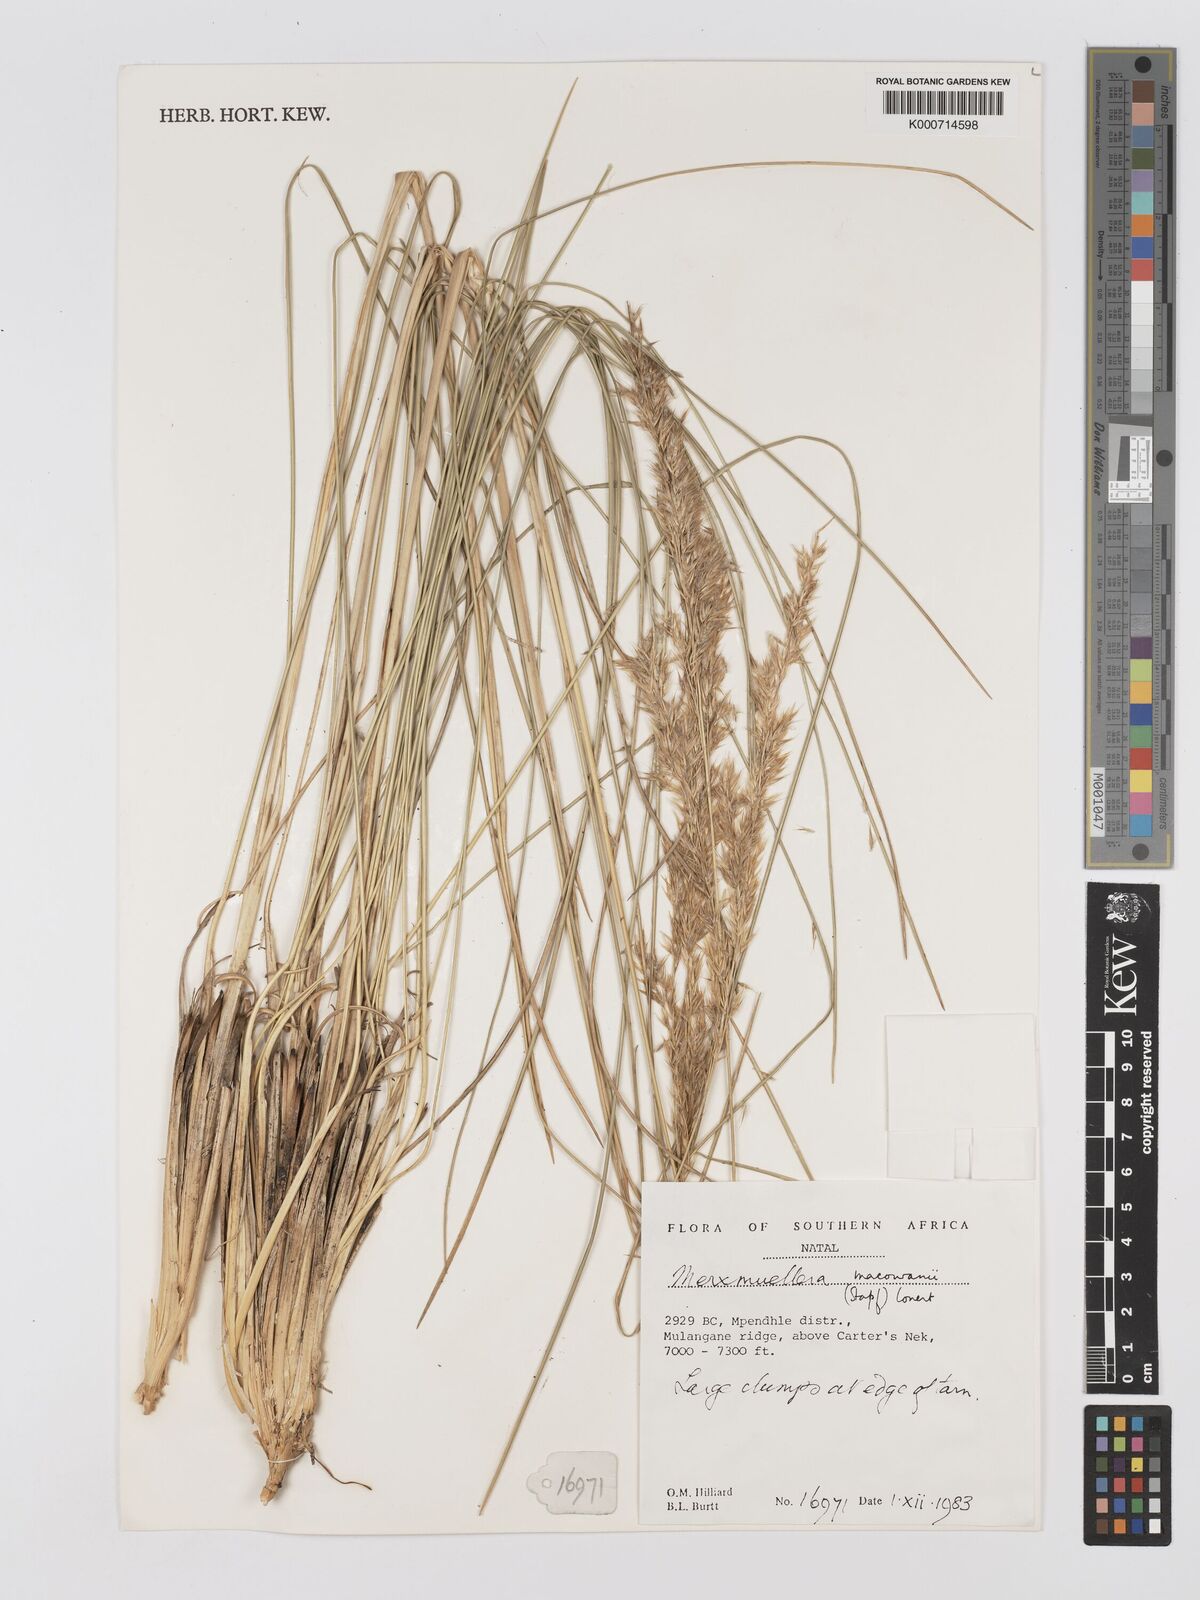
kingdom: Plantae
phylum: Tracheophyta
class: Liliopsida
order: Poales
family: Poaceae
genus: Rytidosperma
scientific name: Rytidosperma
